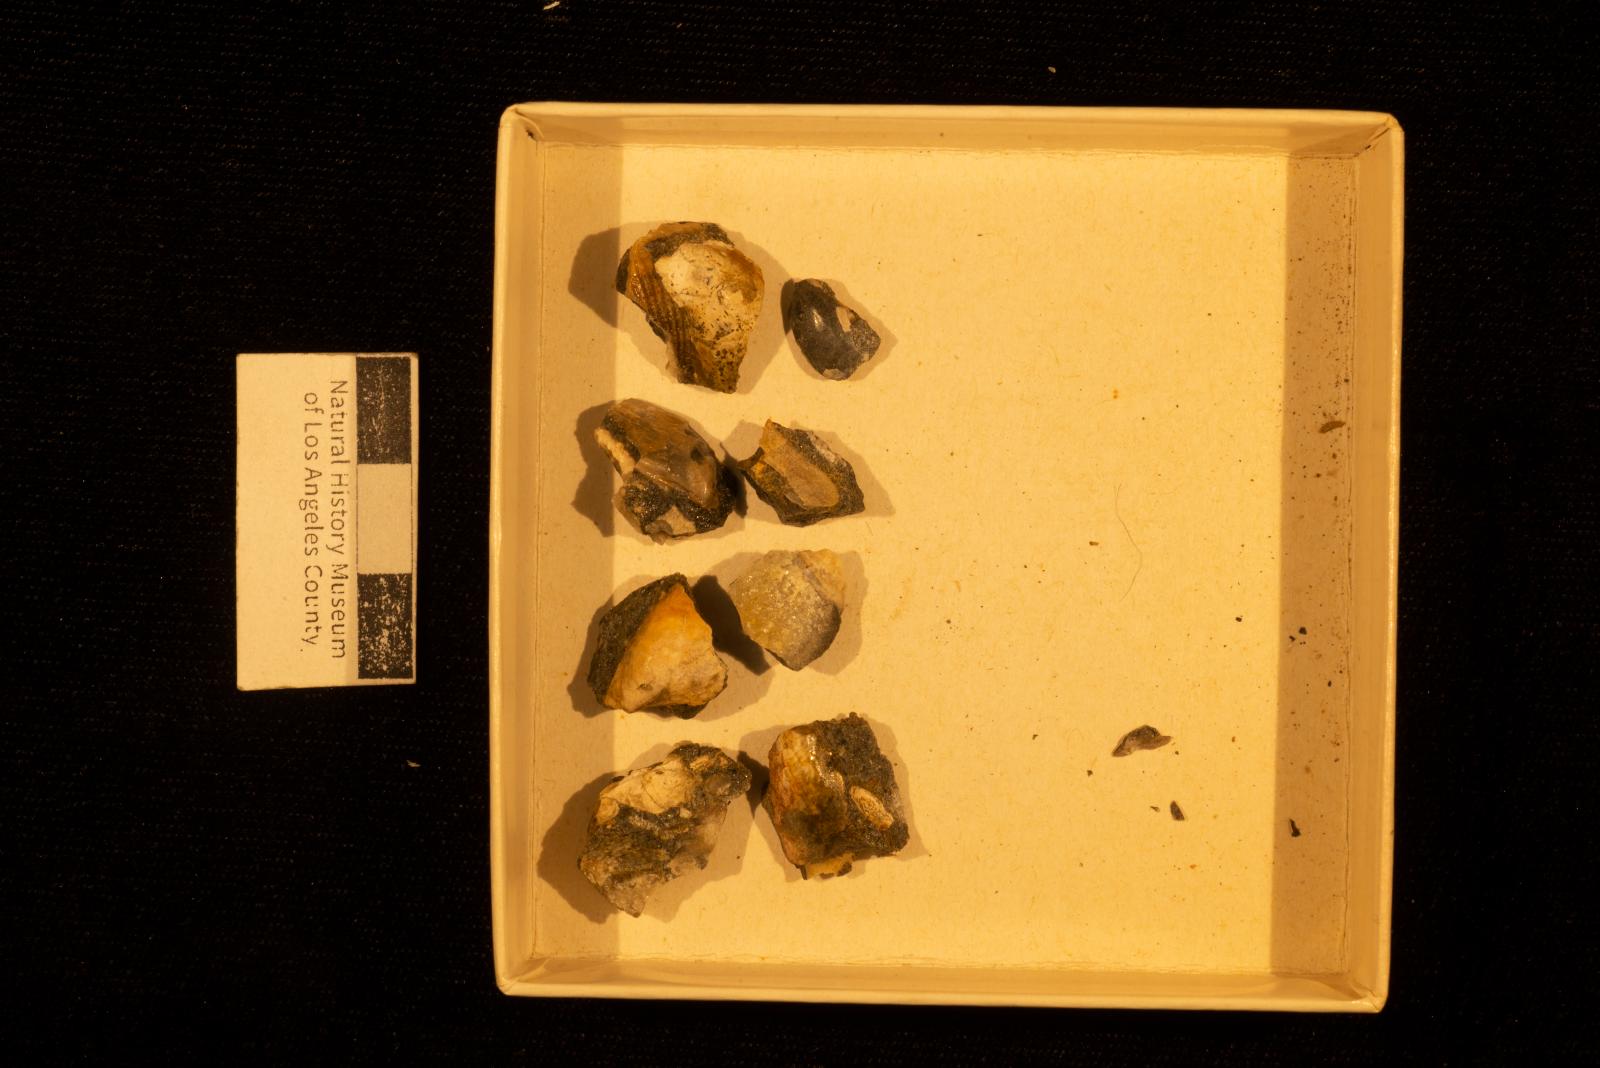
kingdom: Animalia
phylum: Mollusca
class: Bivalvia
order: Ostreida
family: Pteriidae
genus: Pteria
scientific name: Pteria pellucida
